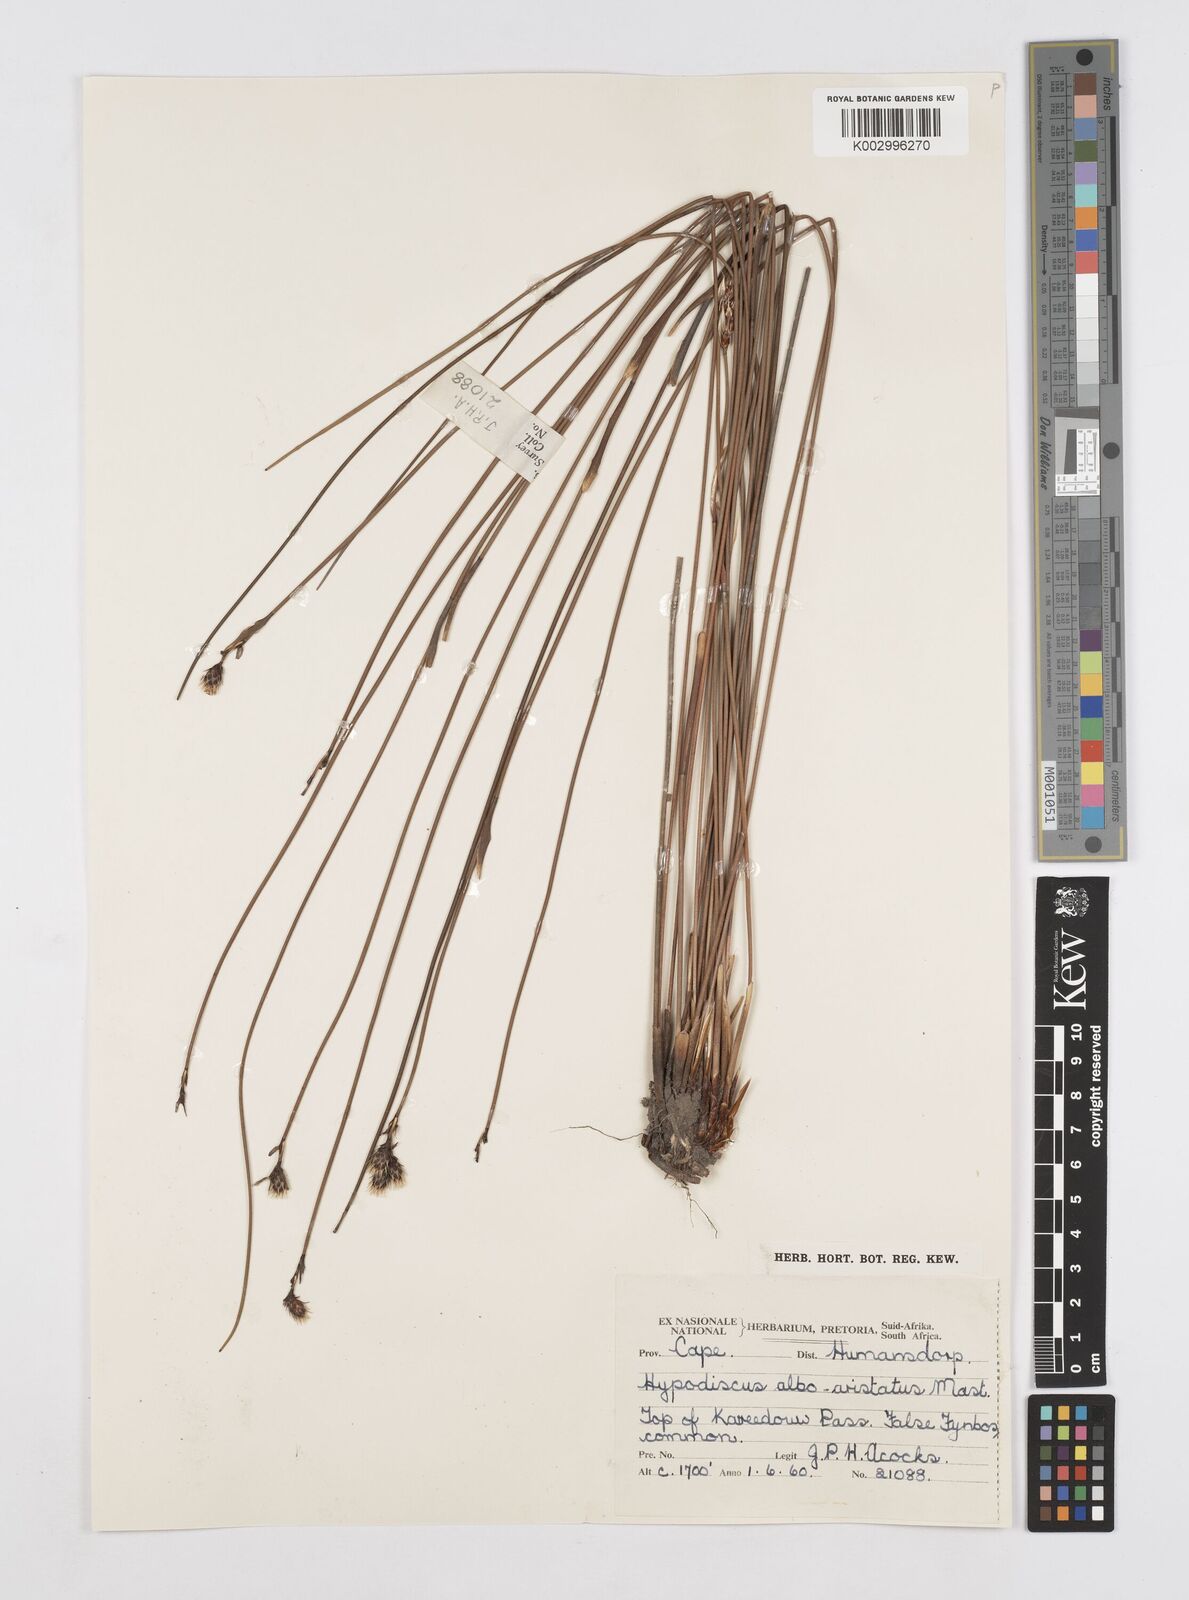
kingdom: Plantae
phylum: Tracheophyta
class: Liliopsida
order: Poales
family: Restionaceae
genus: Hypodiscus
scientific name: Hypodiscus alboaristatus
